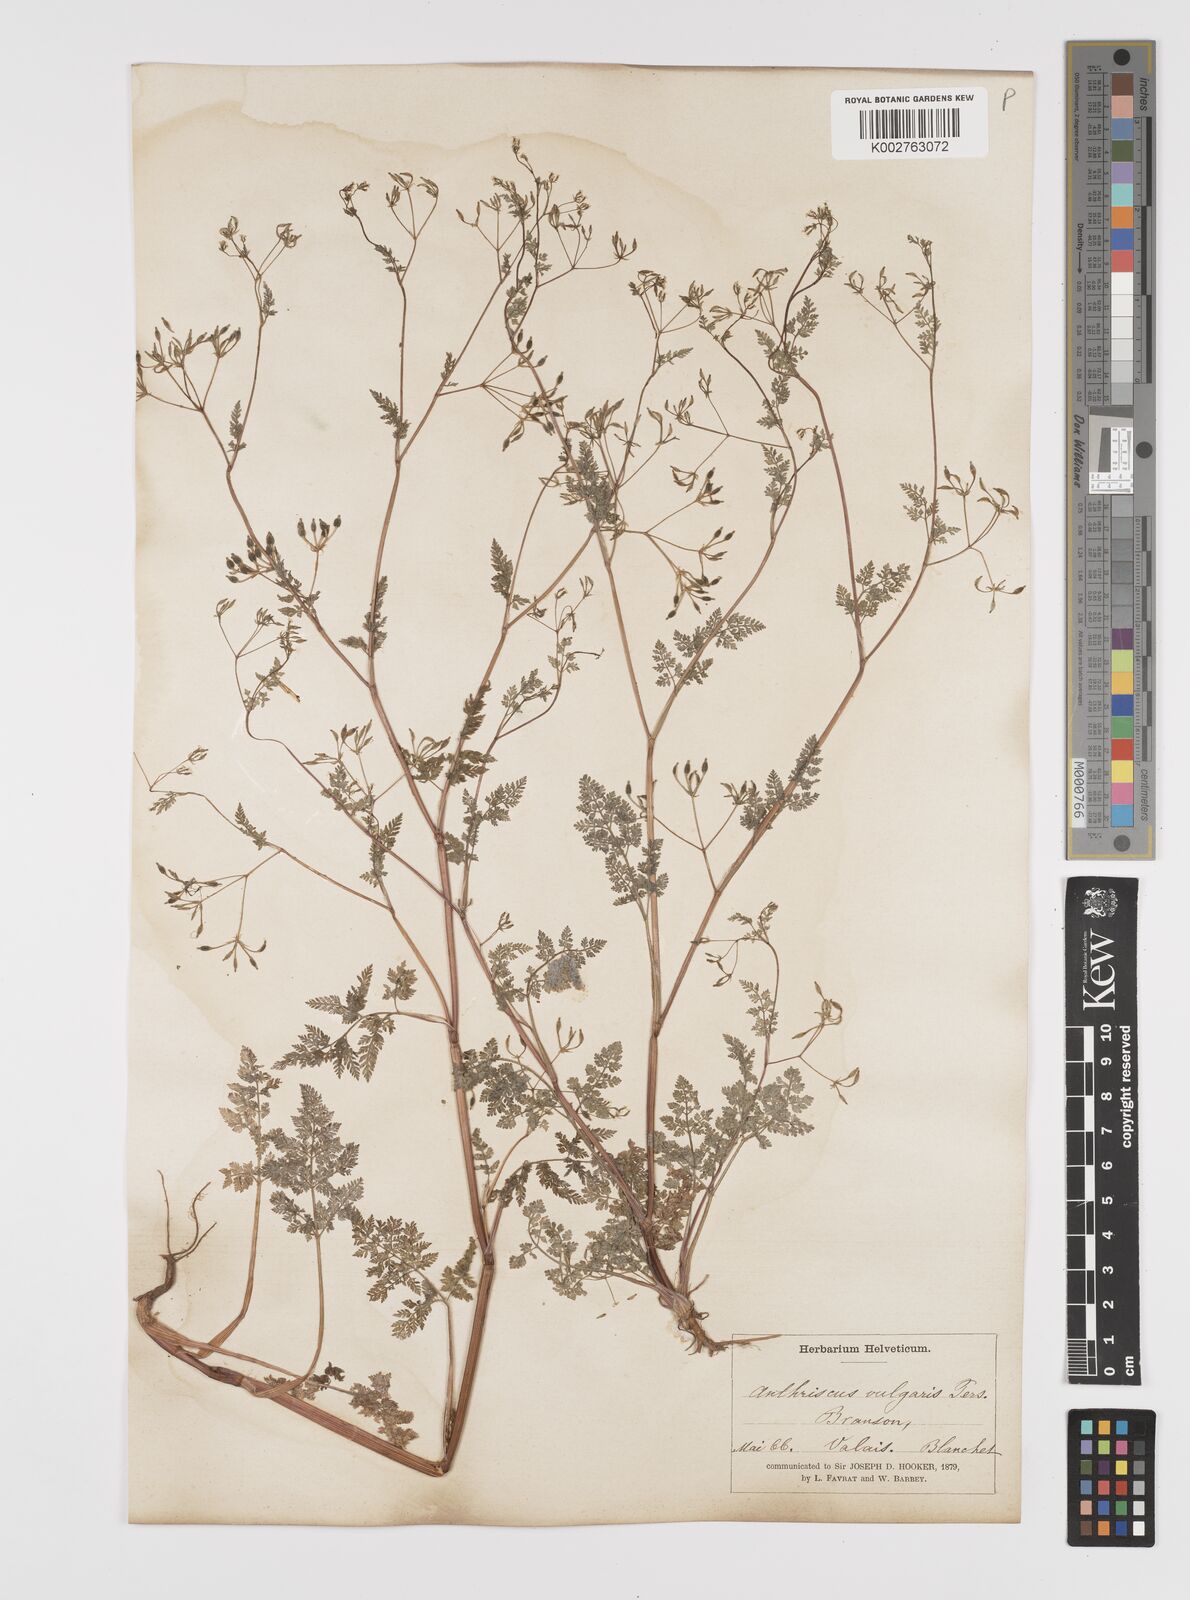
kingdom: Plantae
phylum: Tracheophyta
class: Magnoliopsida
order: Apiales
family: Apiaceae
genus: Anthriscus
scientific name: Anthriscus caucalis
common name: Bur chervil
